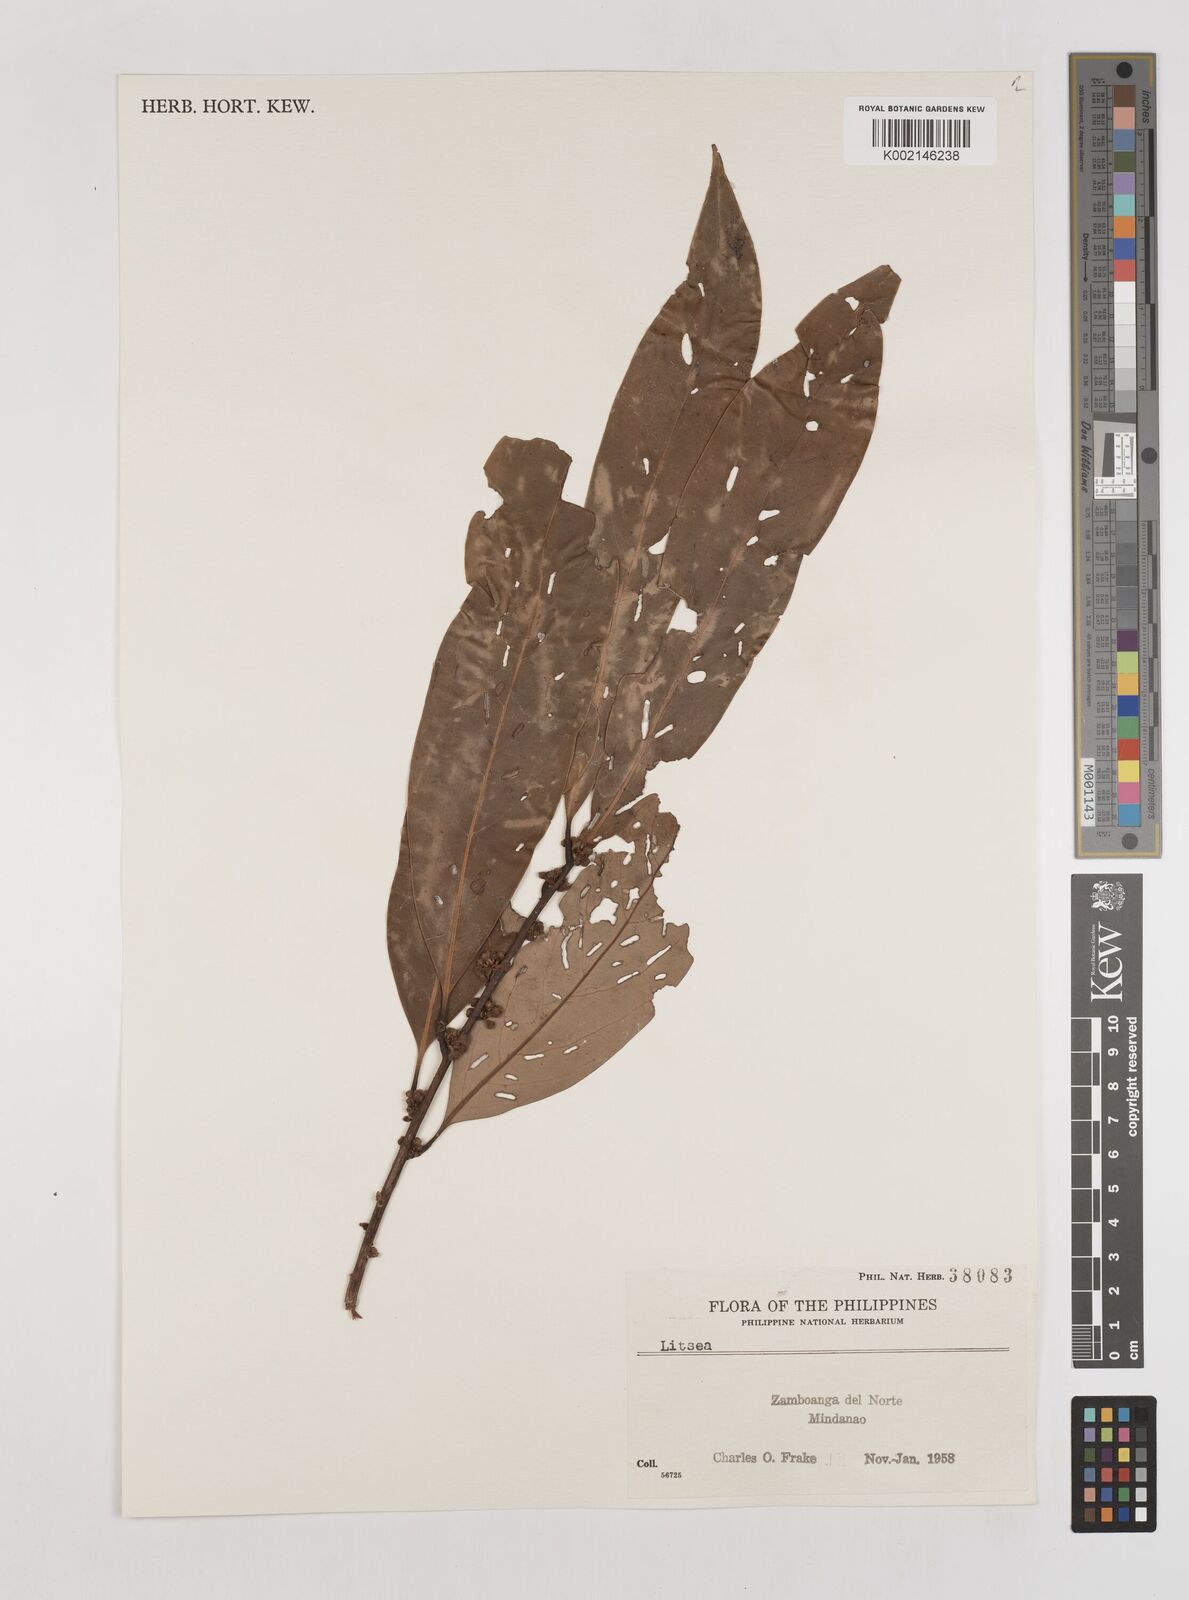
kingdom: Plantae
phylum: Tracheophyta
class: Magnoliopsida
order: Laurales
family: Lauraceae
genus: Litsea
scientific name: Litsea
